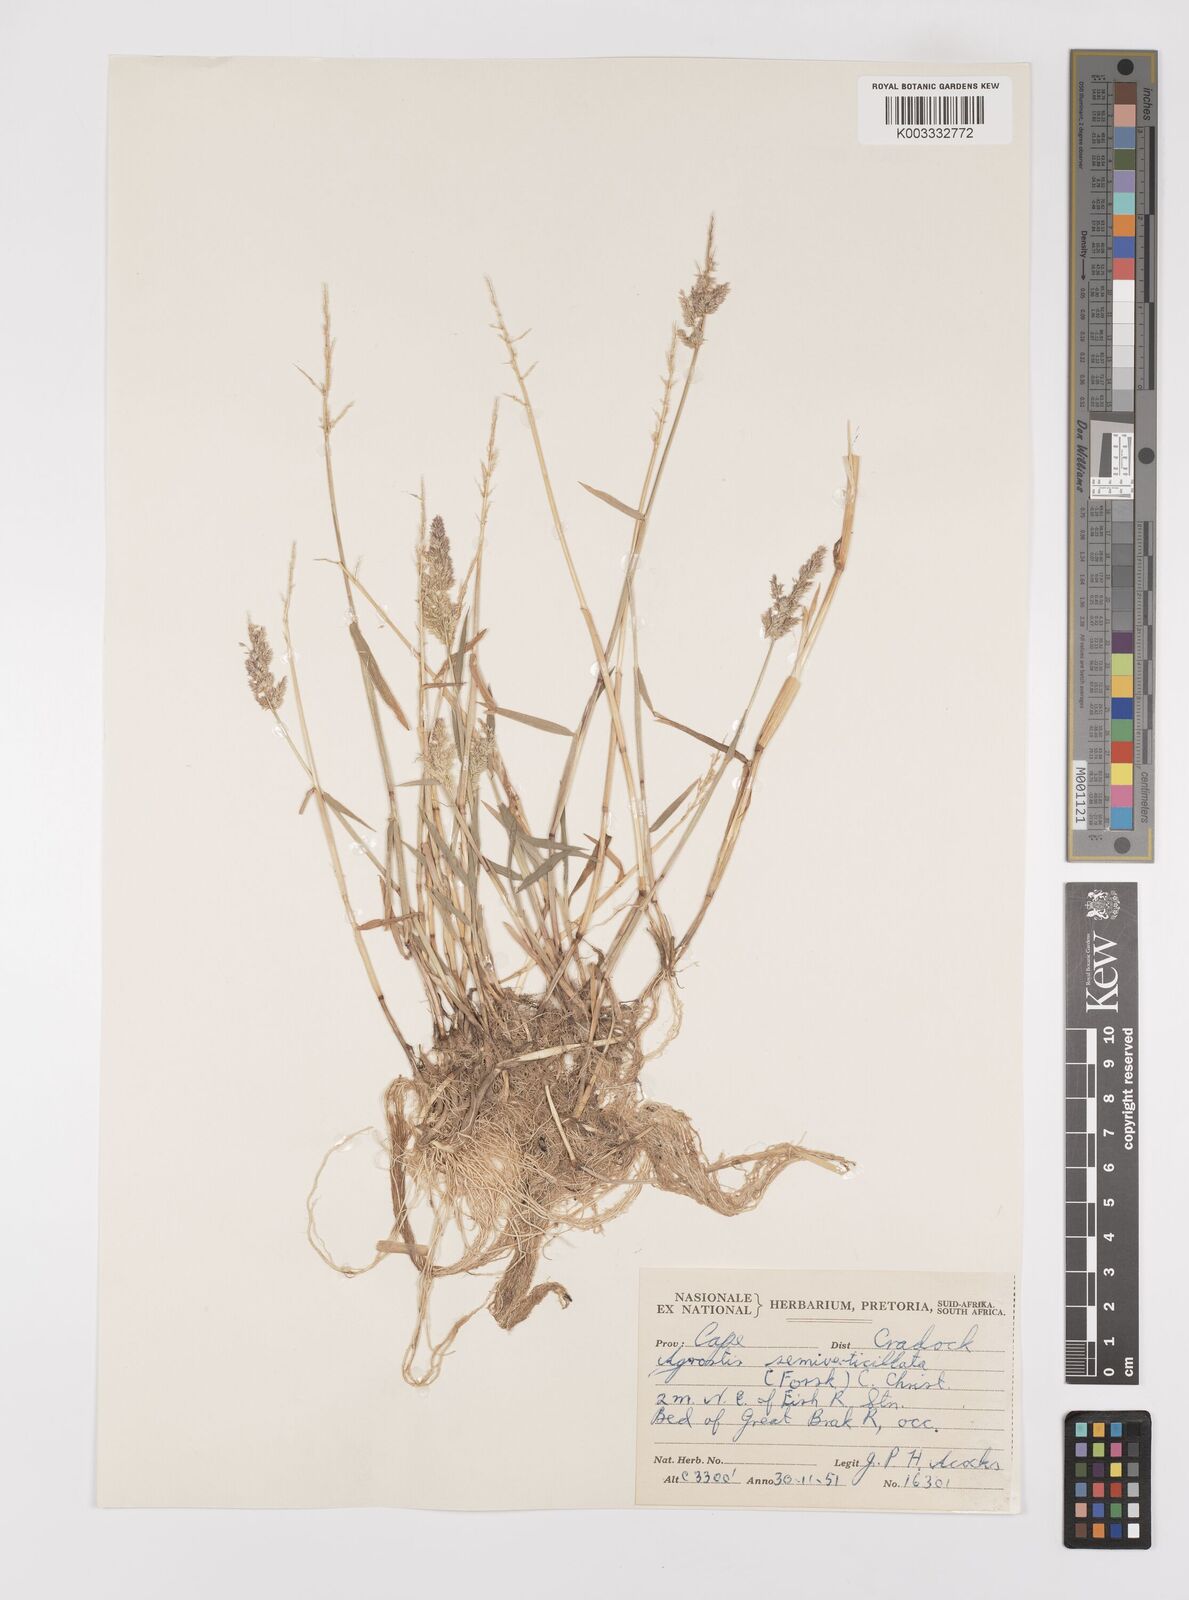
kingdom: Plantae
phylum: Tracheophyta
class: Liliopsida
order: Poales
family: Poaceae
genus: Polypogon
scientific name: Polypogon viridis
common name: Water bent
